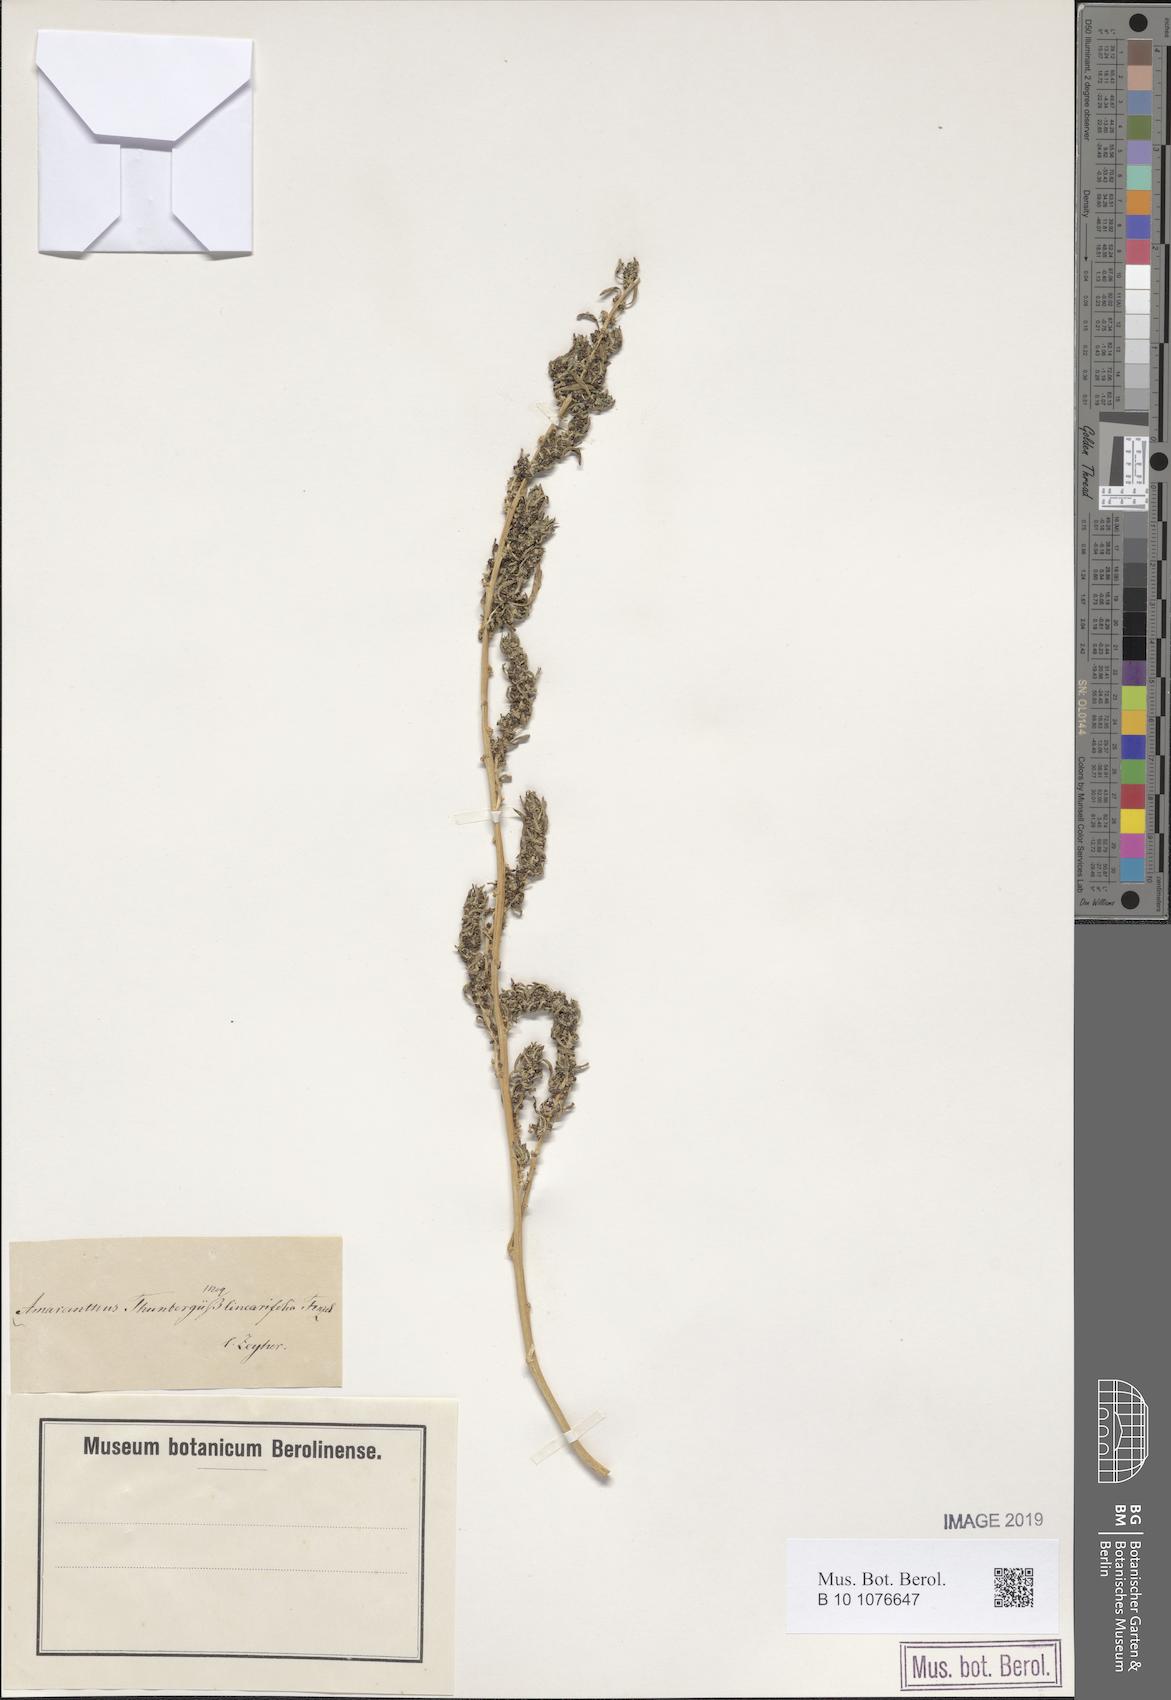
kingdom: Plantae
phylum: Tracheophyta
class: Magnoliopsida
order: Caryophyllales
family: Amaranthaceae
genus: Amaranthus
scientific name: Amaranthus thunbergii
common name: Thunberg's pigweed
